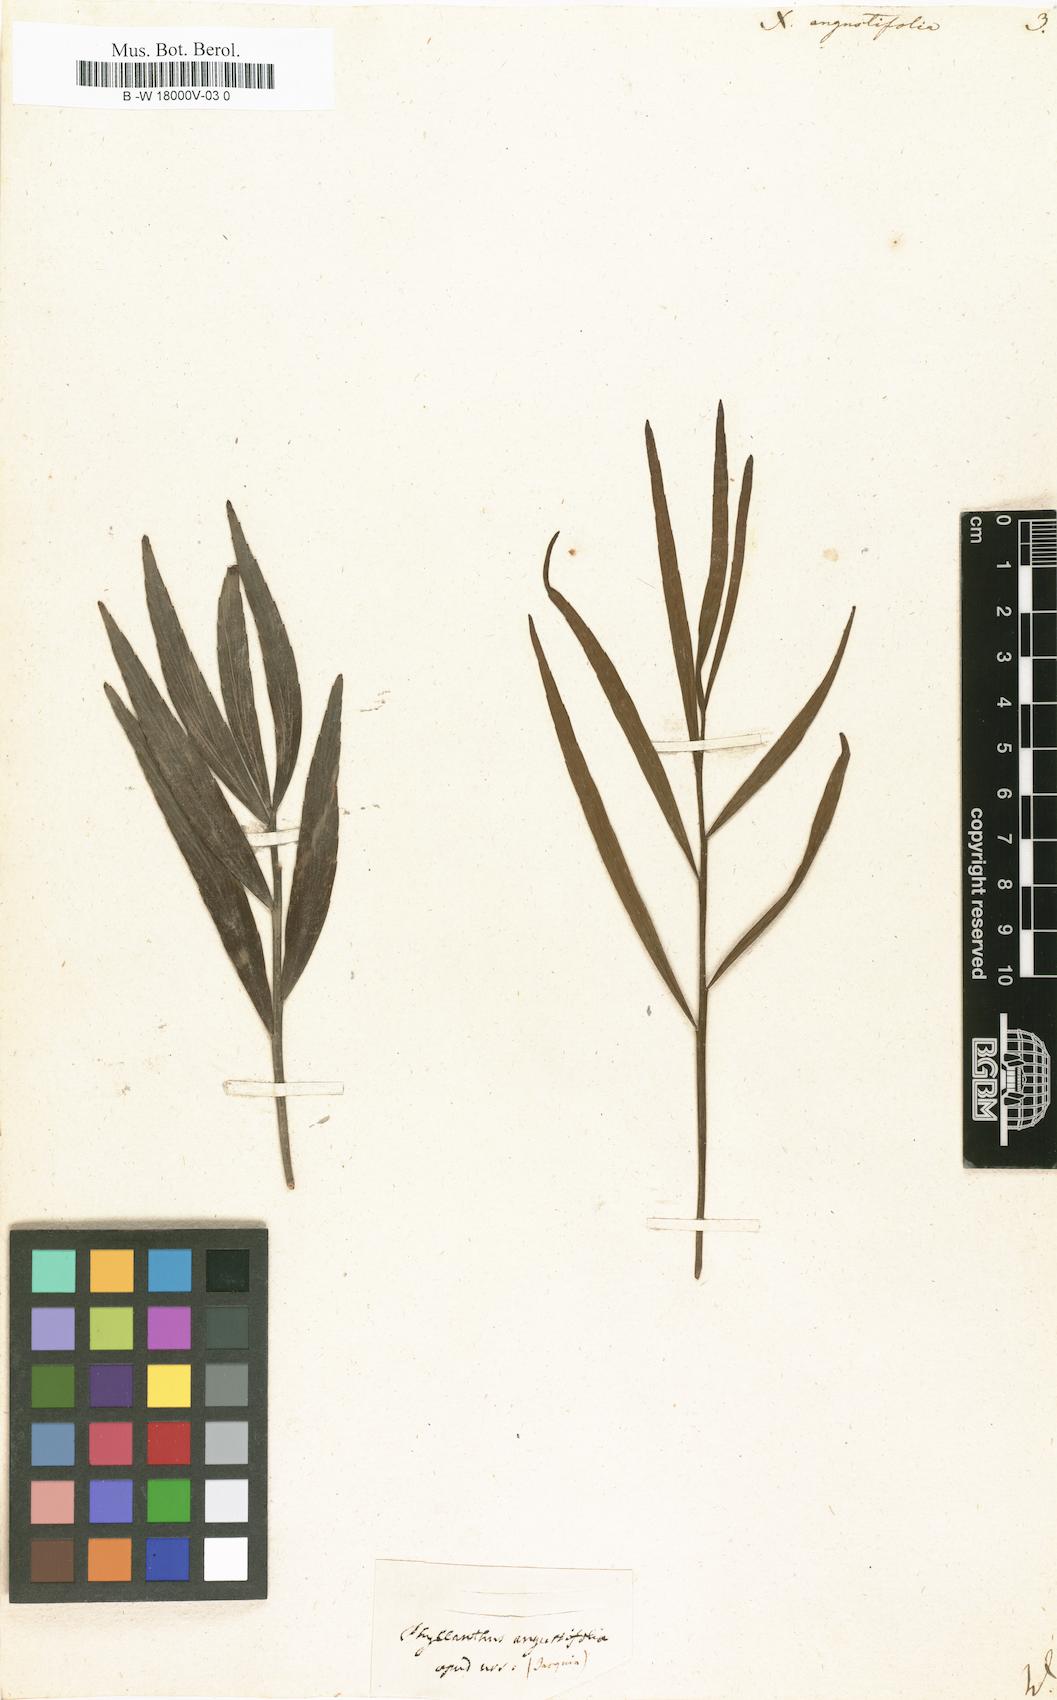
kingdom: Plantae
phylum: Tracheophyta
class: Magnoliopsida
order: Malpighiales
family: Phyllanthaceae
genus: Phyllanthus
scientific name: Phyllanthus angustifolius
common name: Foliage flower
